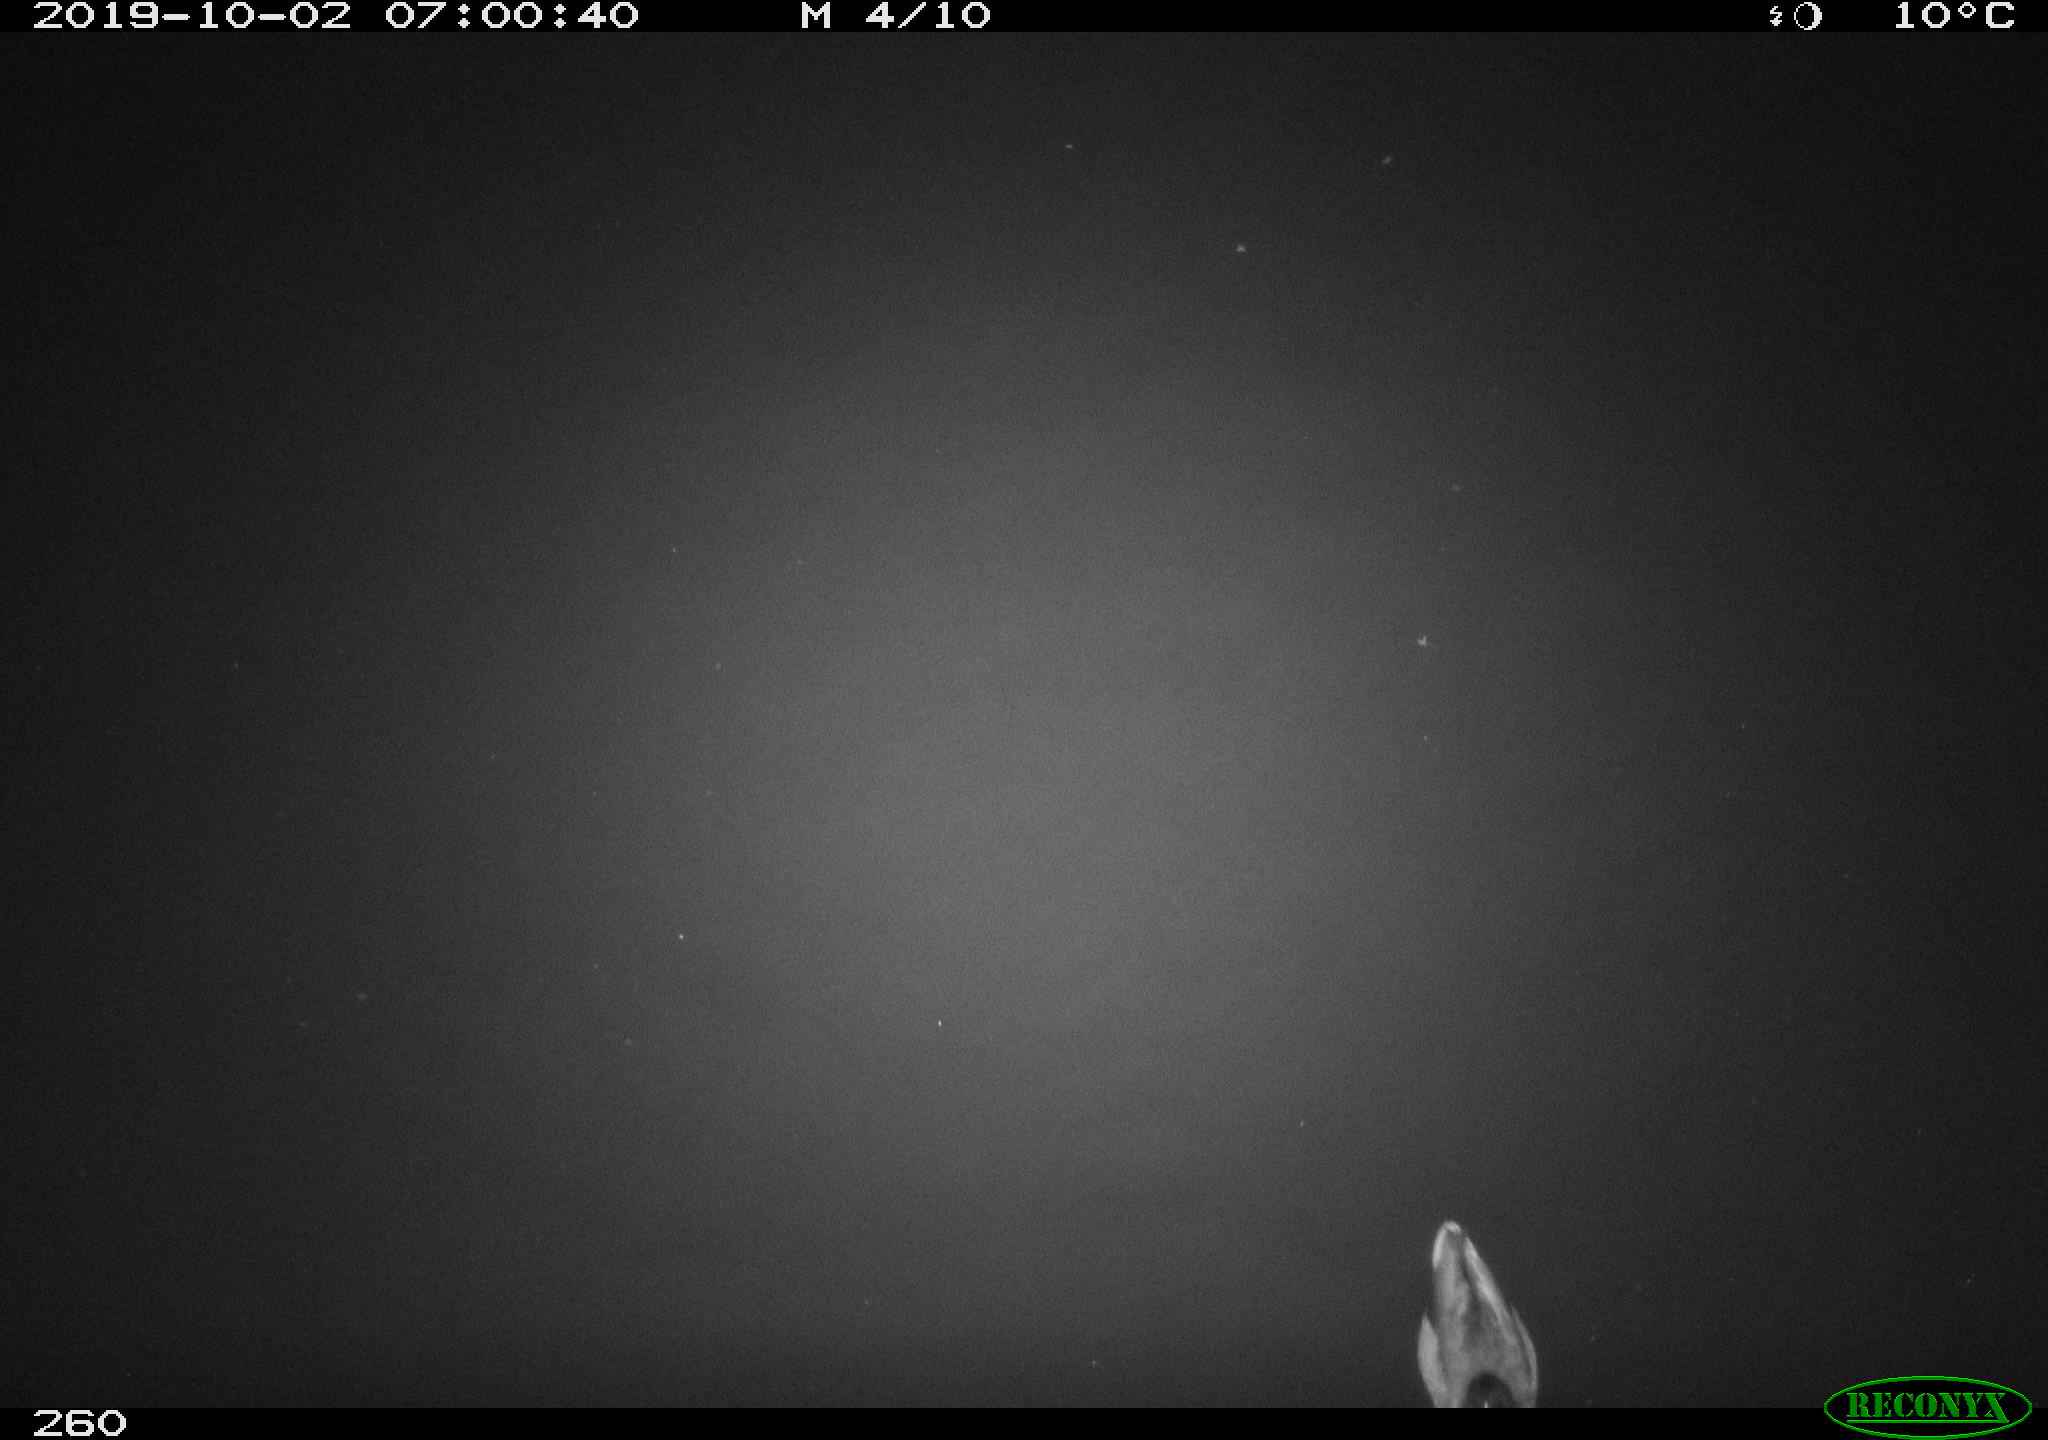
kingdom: Animalia
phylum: Chordata
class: Aves
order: Anseriformes
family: Anatidae
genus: Anas
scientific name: Anas platyrhynchos
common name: Mallard
